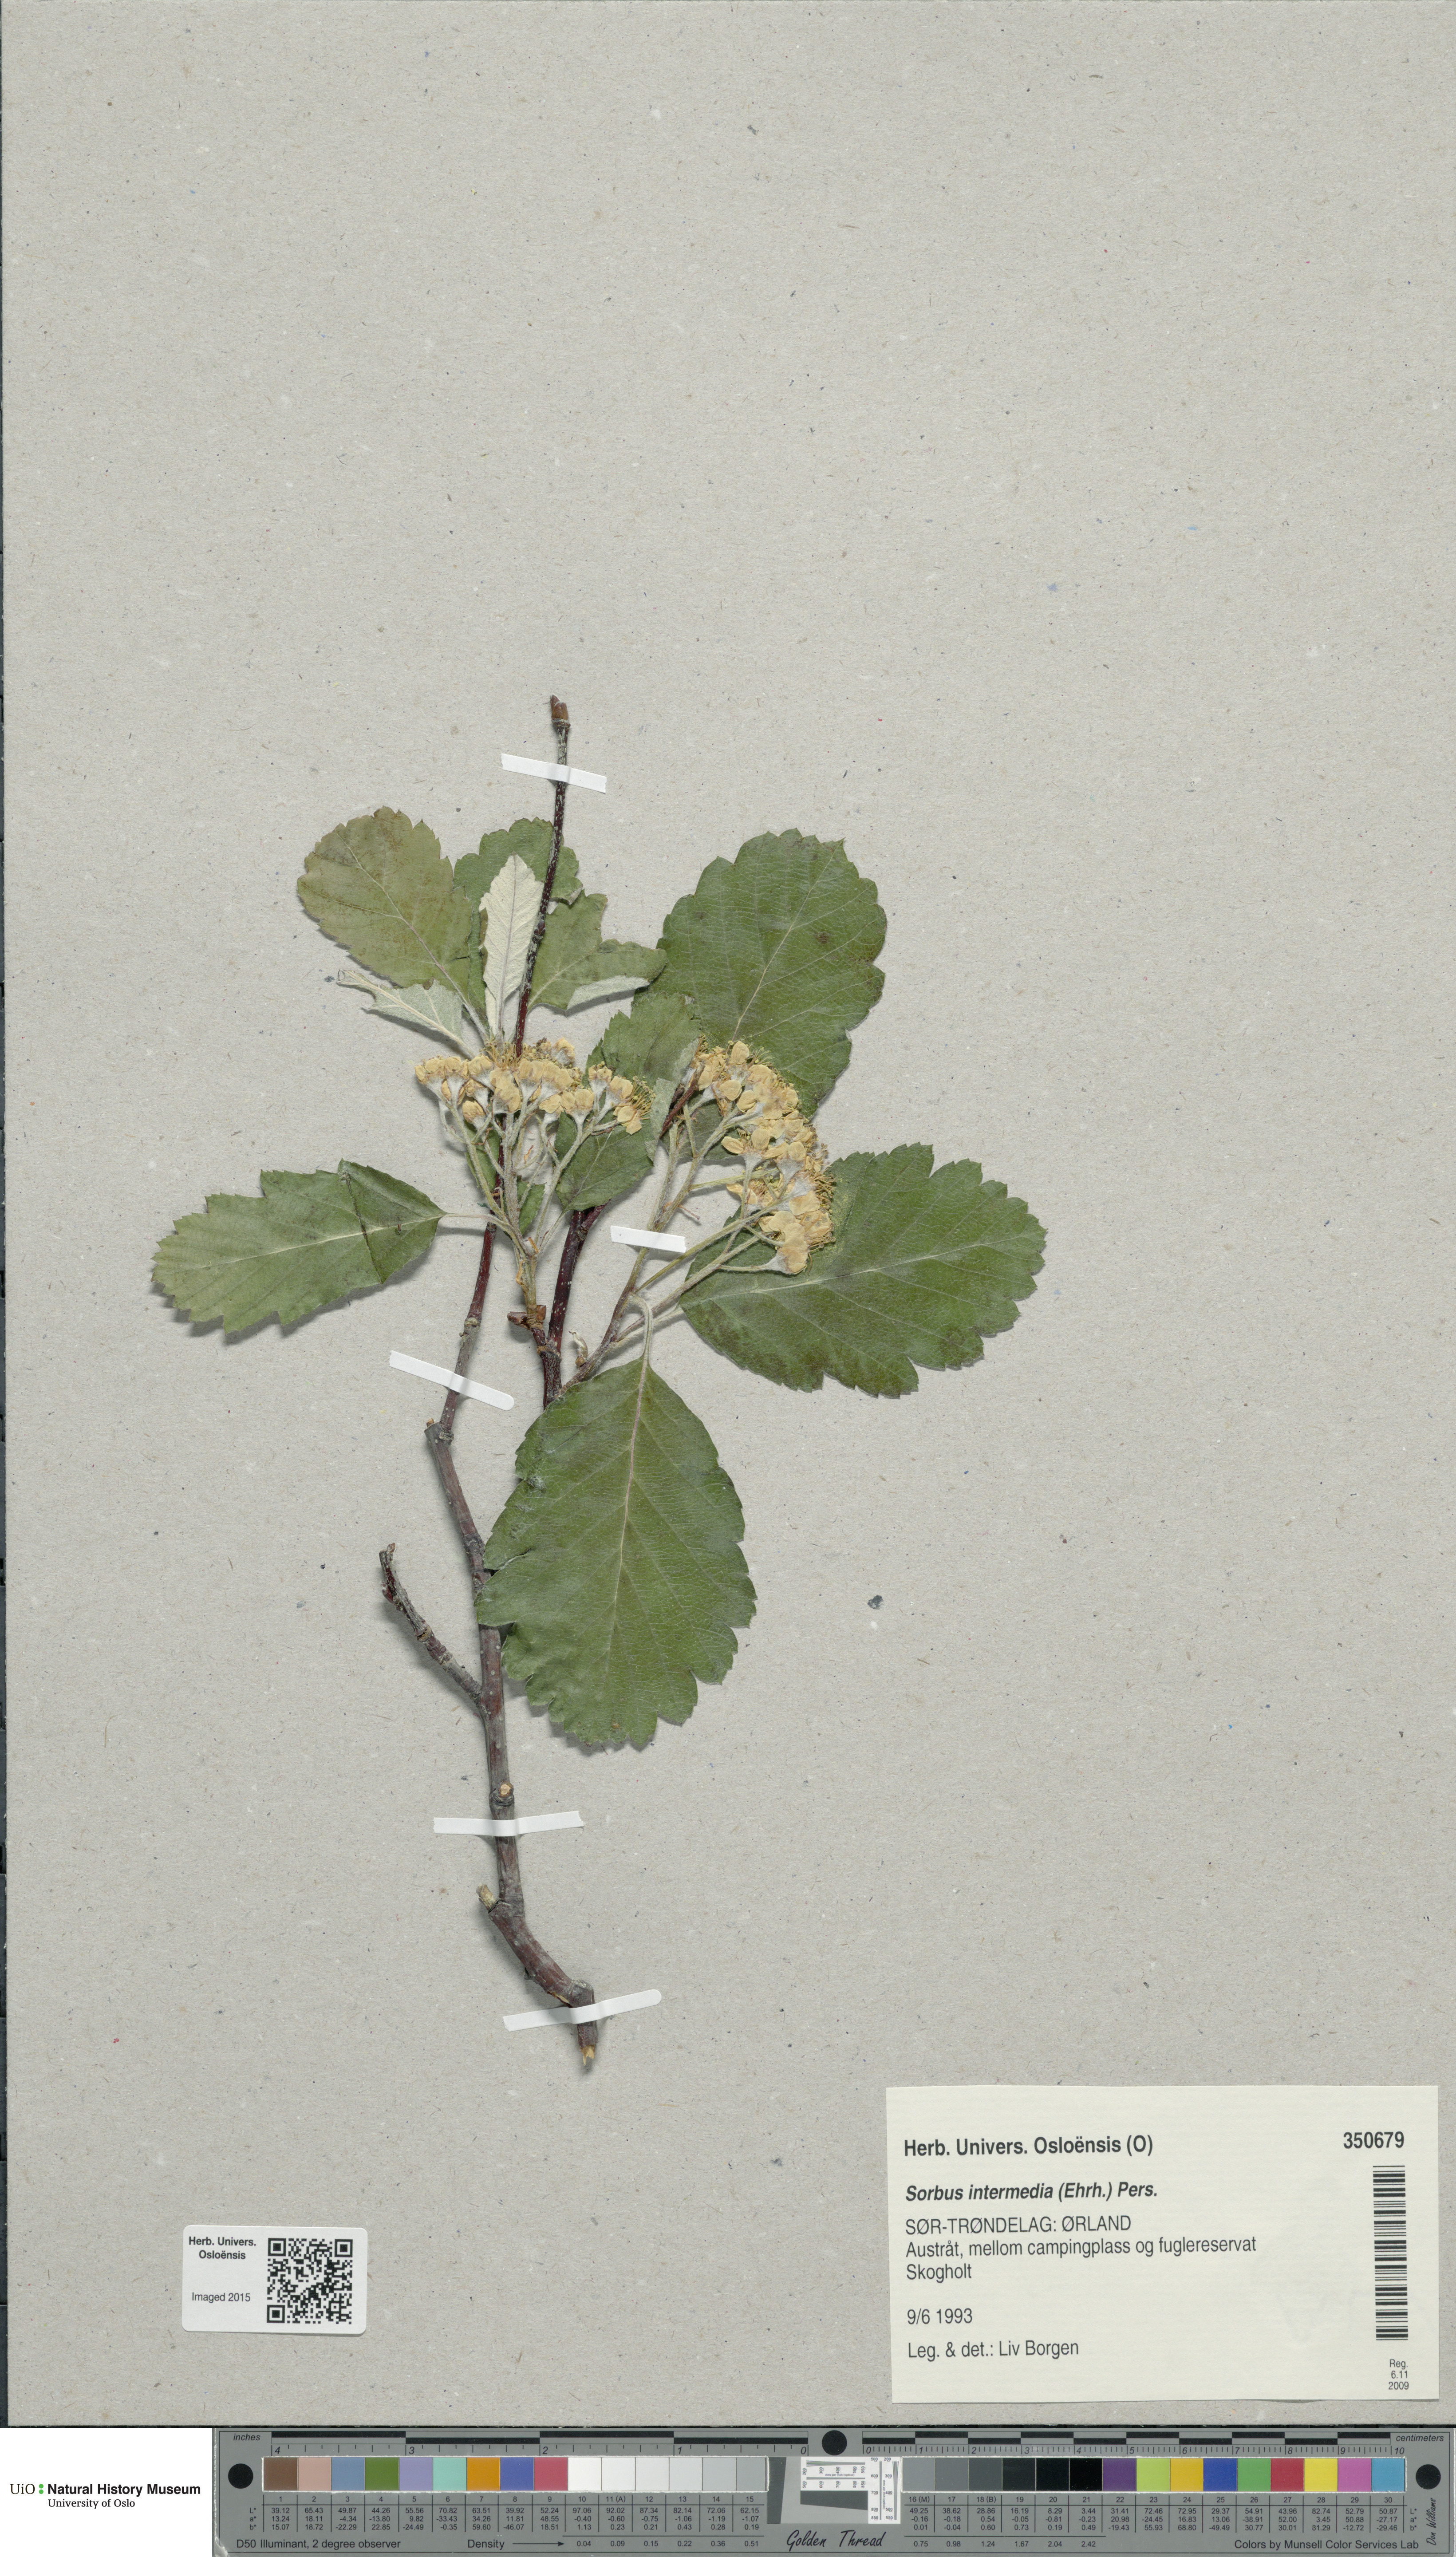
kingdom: Plantae
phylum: Tracheophyta
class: Magnoliopsida
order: Rosales
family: Rosaceae
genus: Scandosorbus
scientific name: Scandosorbus intermedia
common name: Swedish whitebeam
